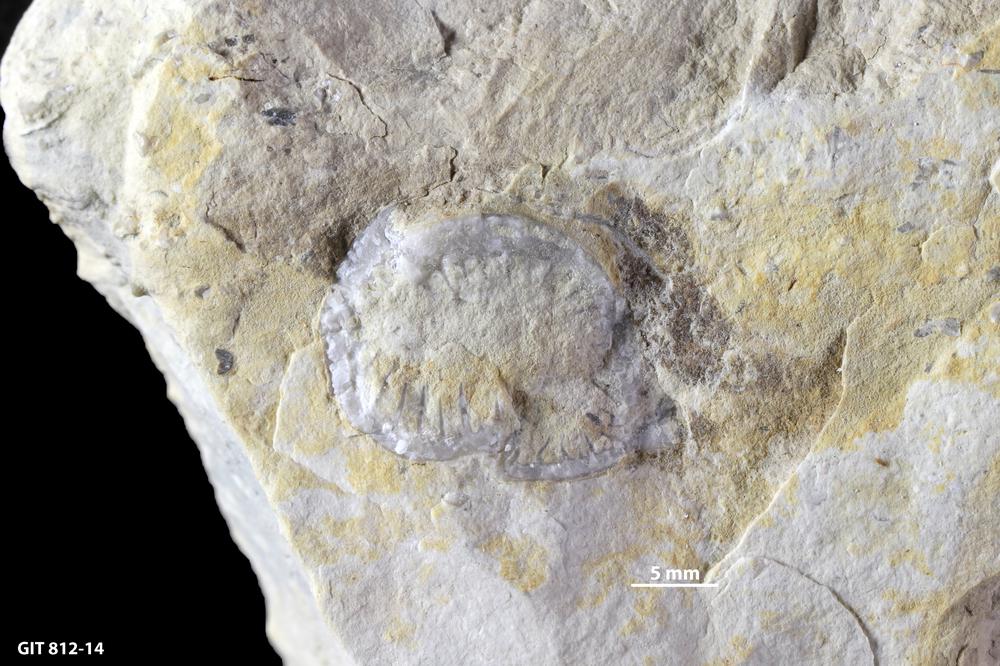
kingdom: Animalia
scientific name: Animalia
